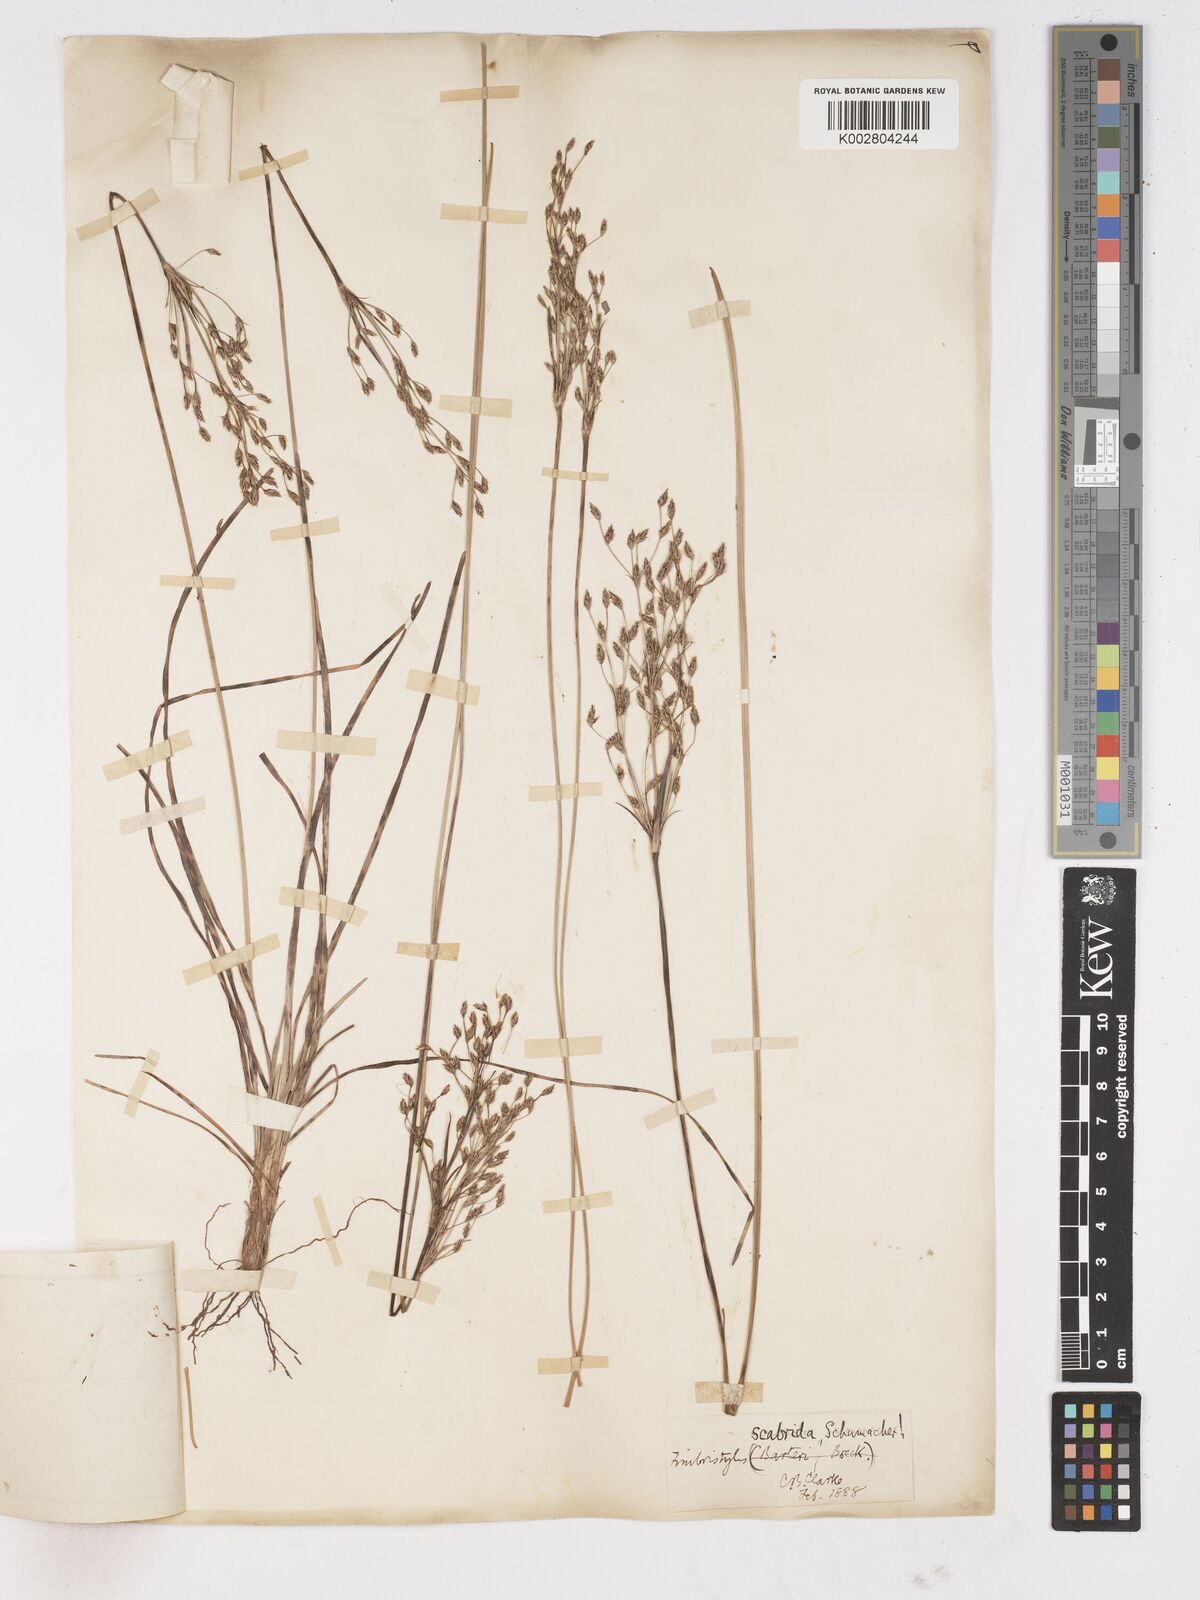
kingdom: Plantae
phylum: Tracheophyta
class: Liliopsida
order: Poales
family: Cyperaceae
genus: Fimbristylis
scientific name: Fimbristylis scabrida
